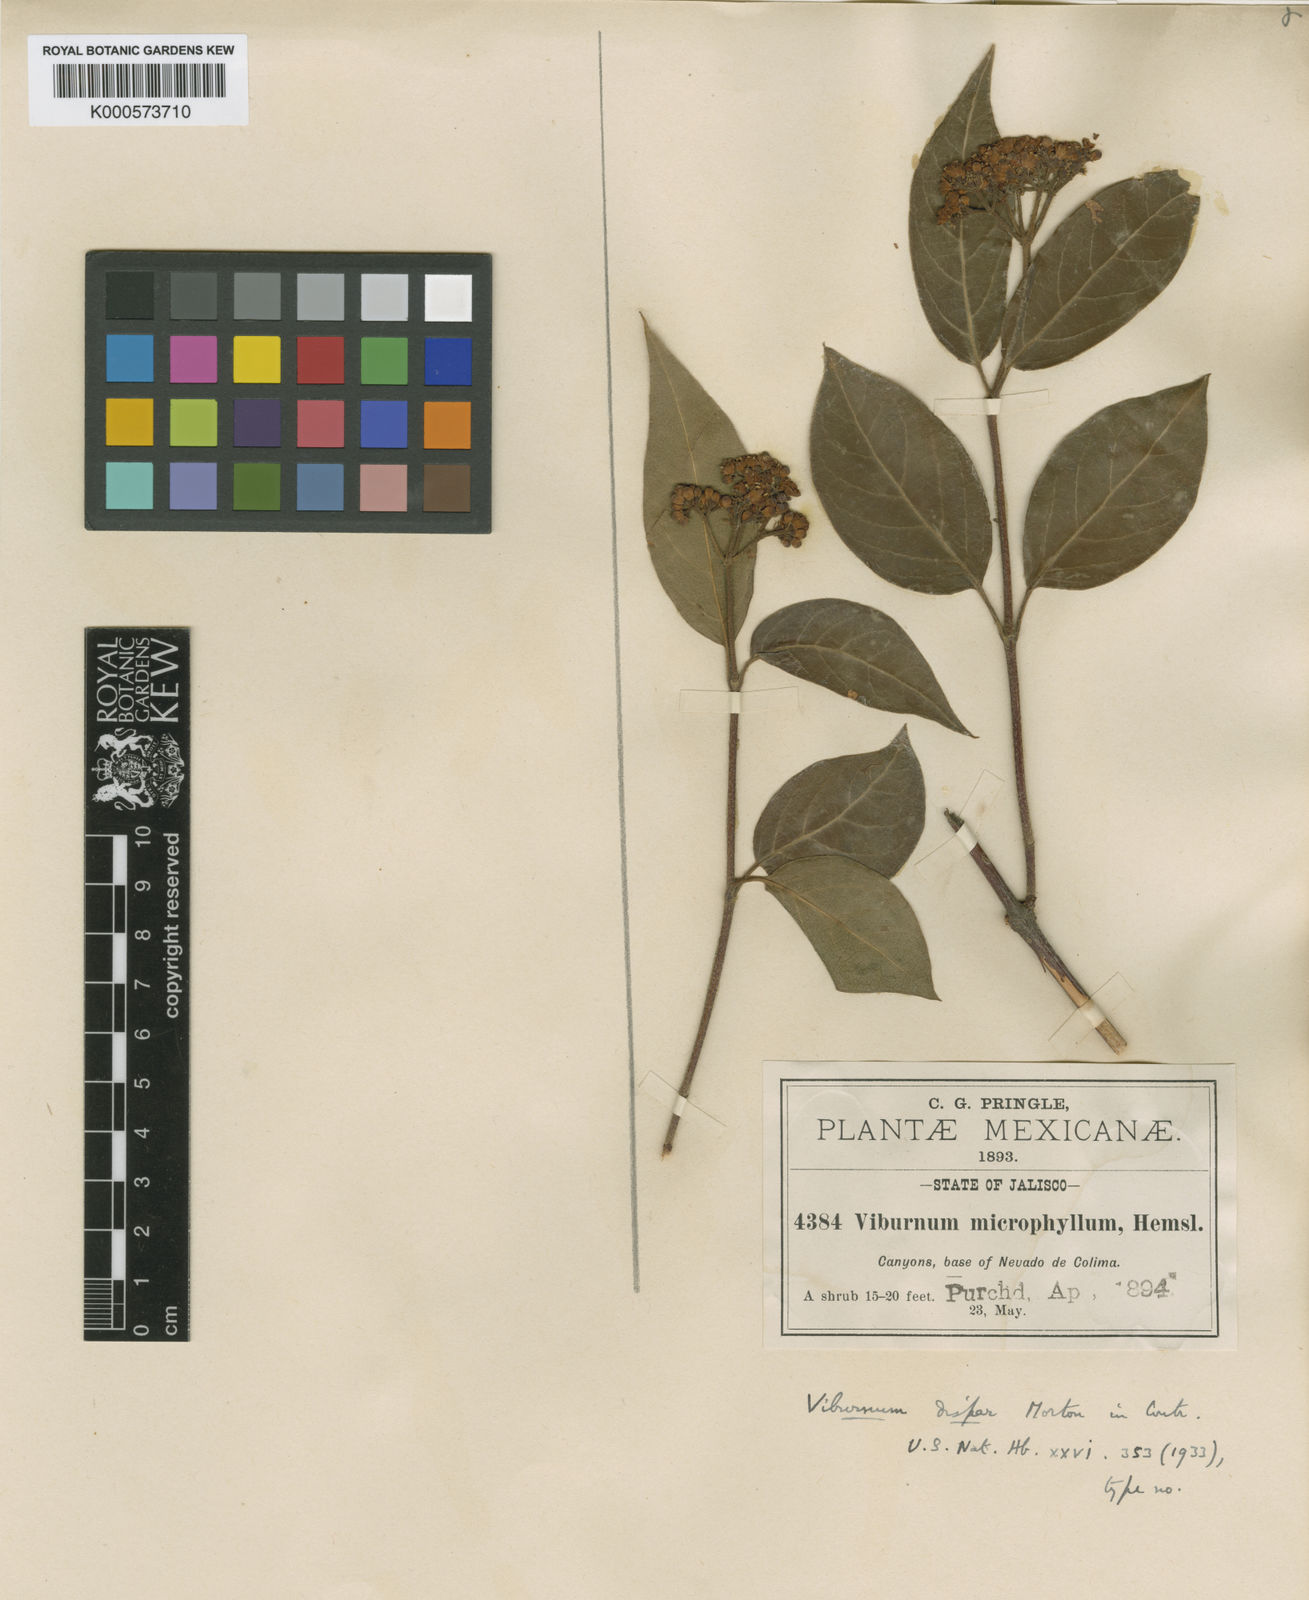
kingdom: Plantae
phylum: Tracheophyta
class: Magnoliopsida
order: Dipsacales
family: Viburnaceae
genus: Viburnum
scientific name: Viburnum microphyllum
